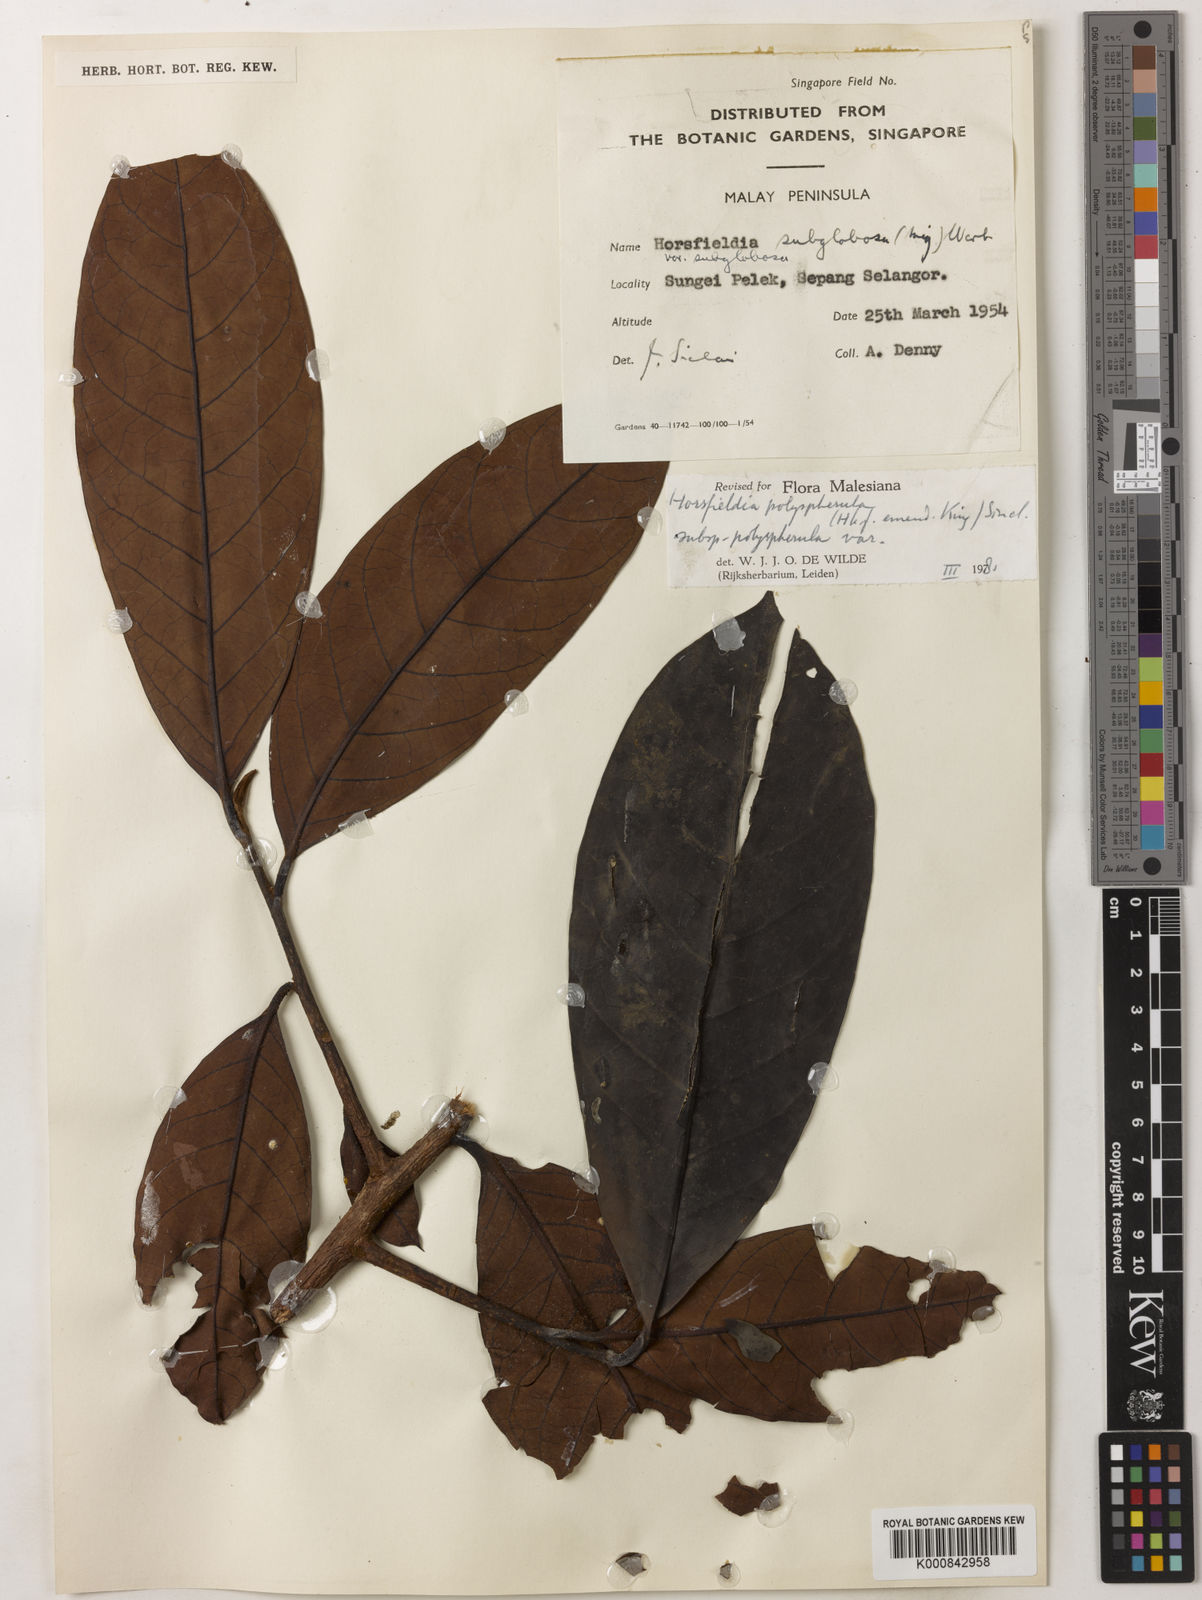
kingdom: Plantae
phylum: Tracheophyta
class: Magnoliopsida
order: Magnoliales
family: Myristicaceae
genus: Horsfieldia
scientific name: Horsfieldia
